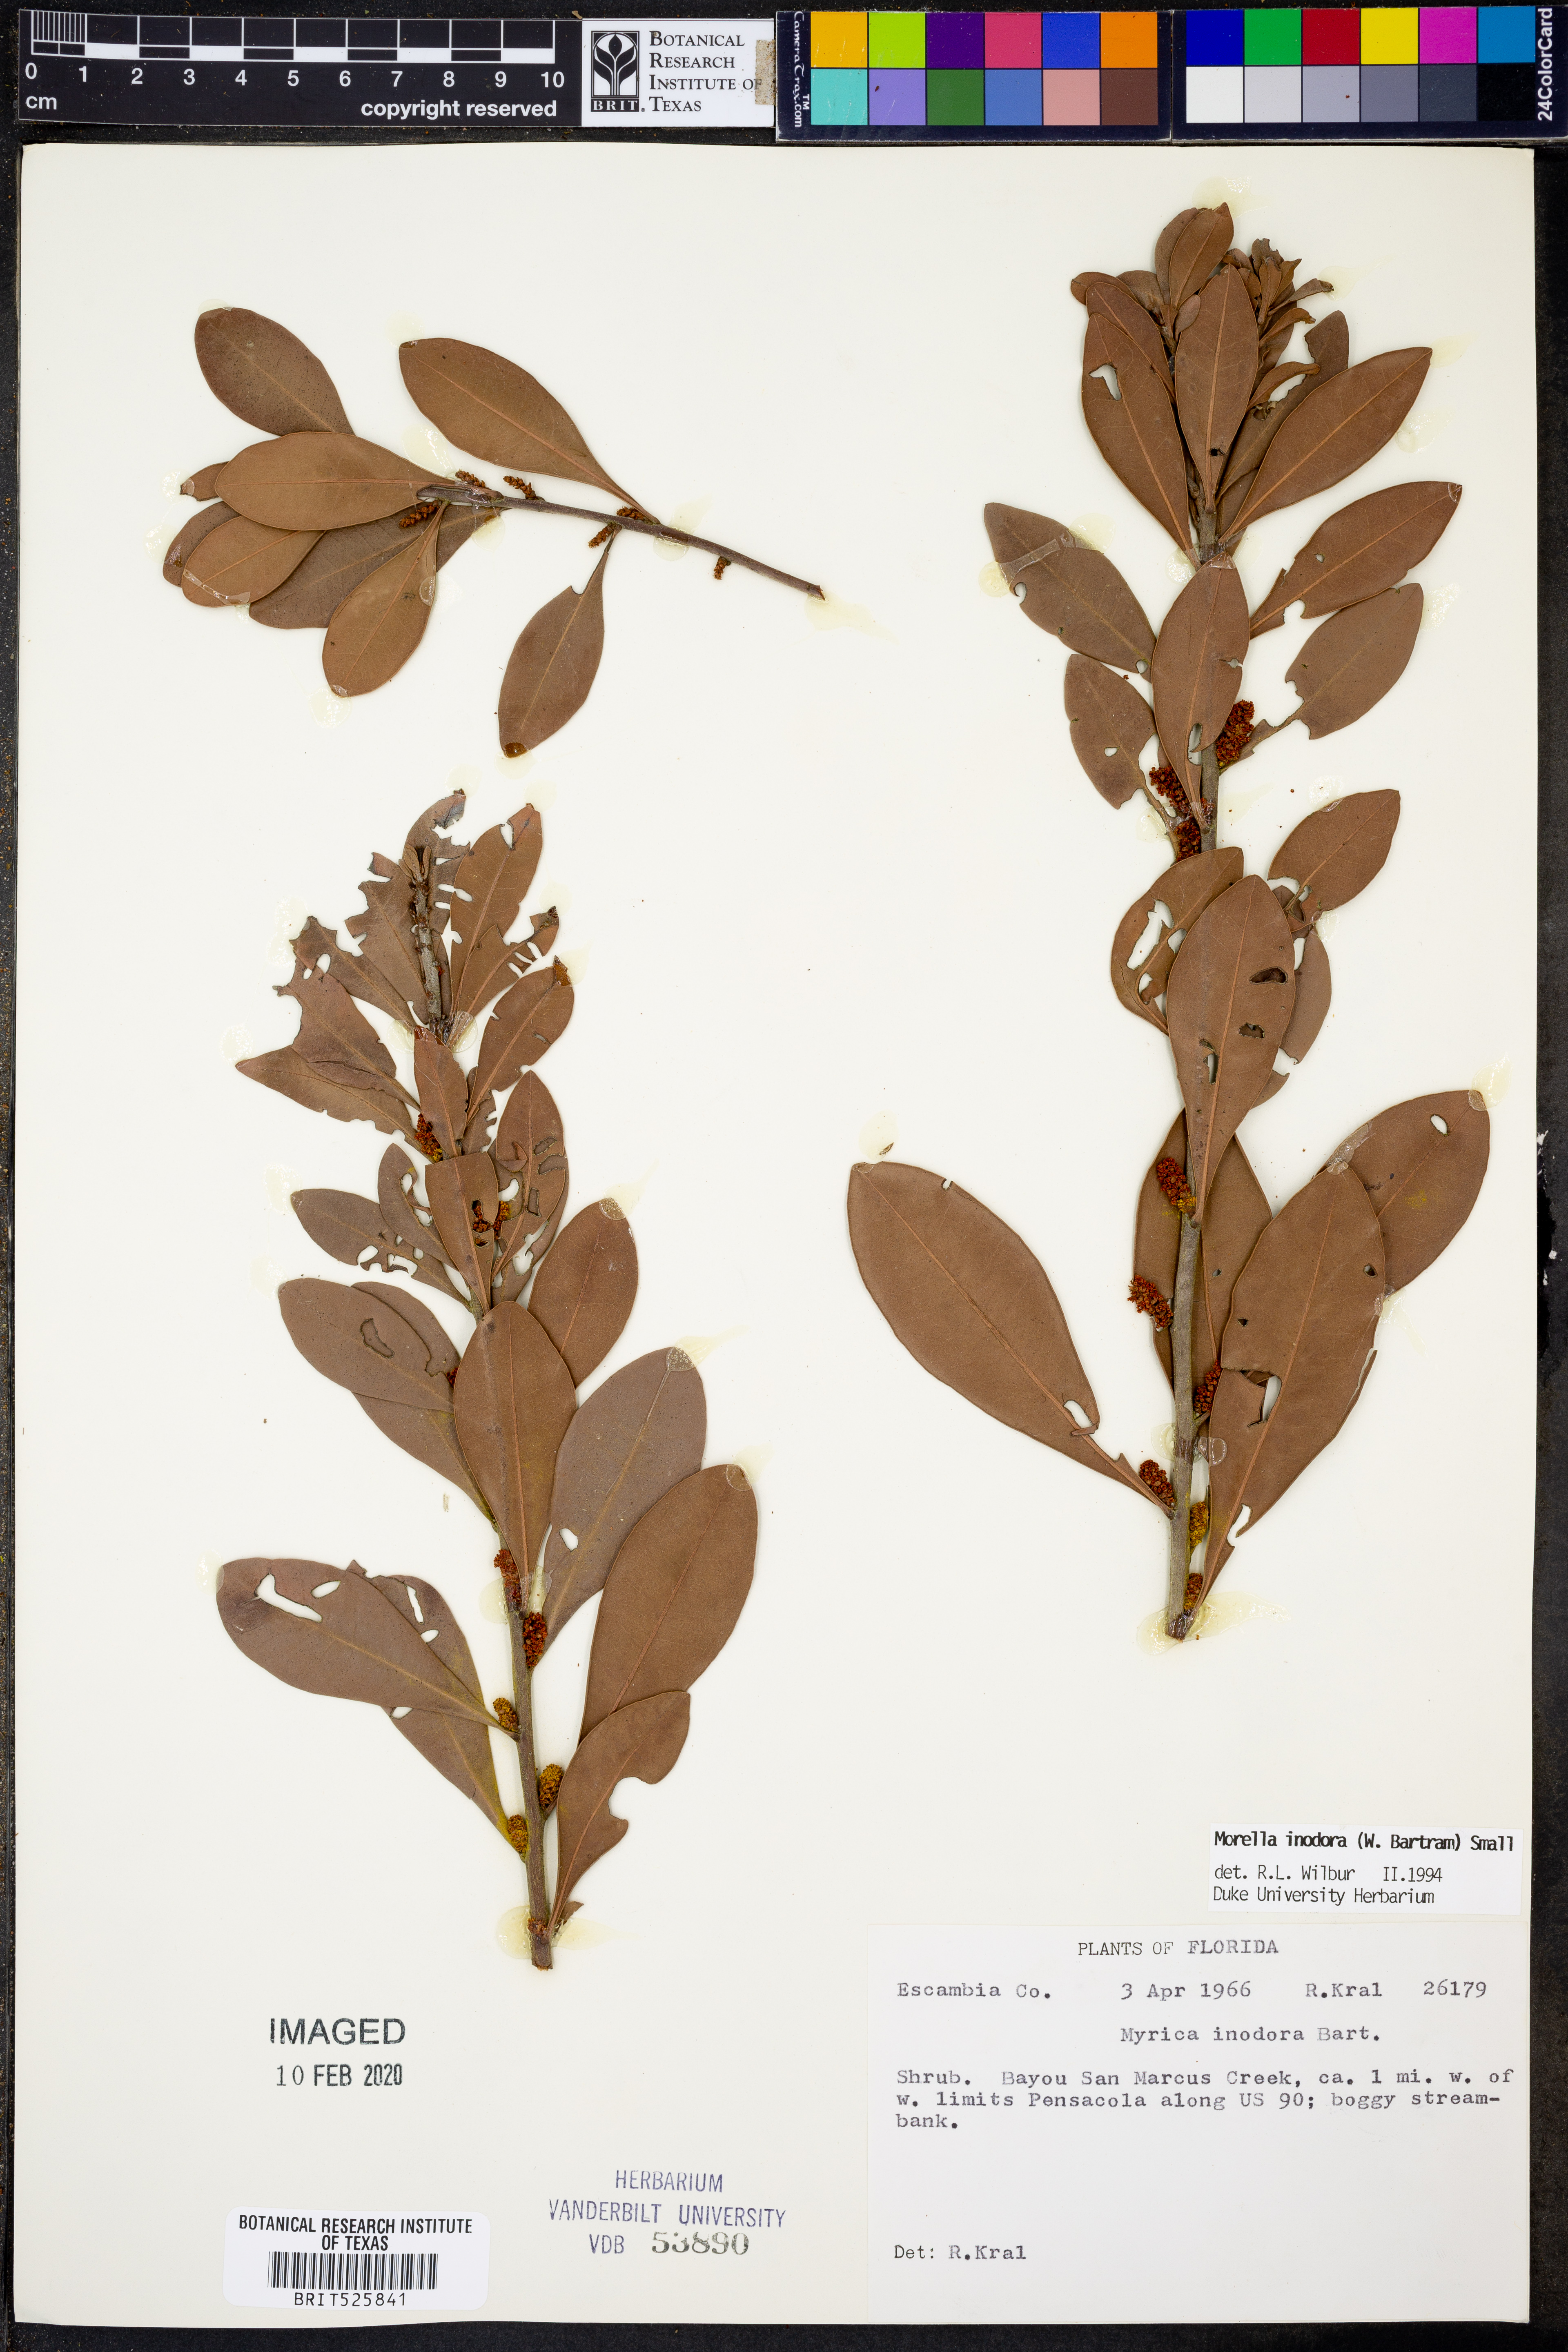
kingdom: Plantae
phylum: Tracheophyta
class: Magnoliopsida
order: Fagales
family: Myricaceae
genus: Morella
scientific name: Morella inodora
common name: Candle-berry
